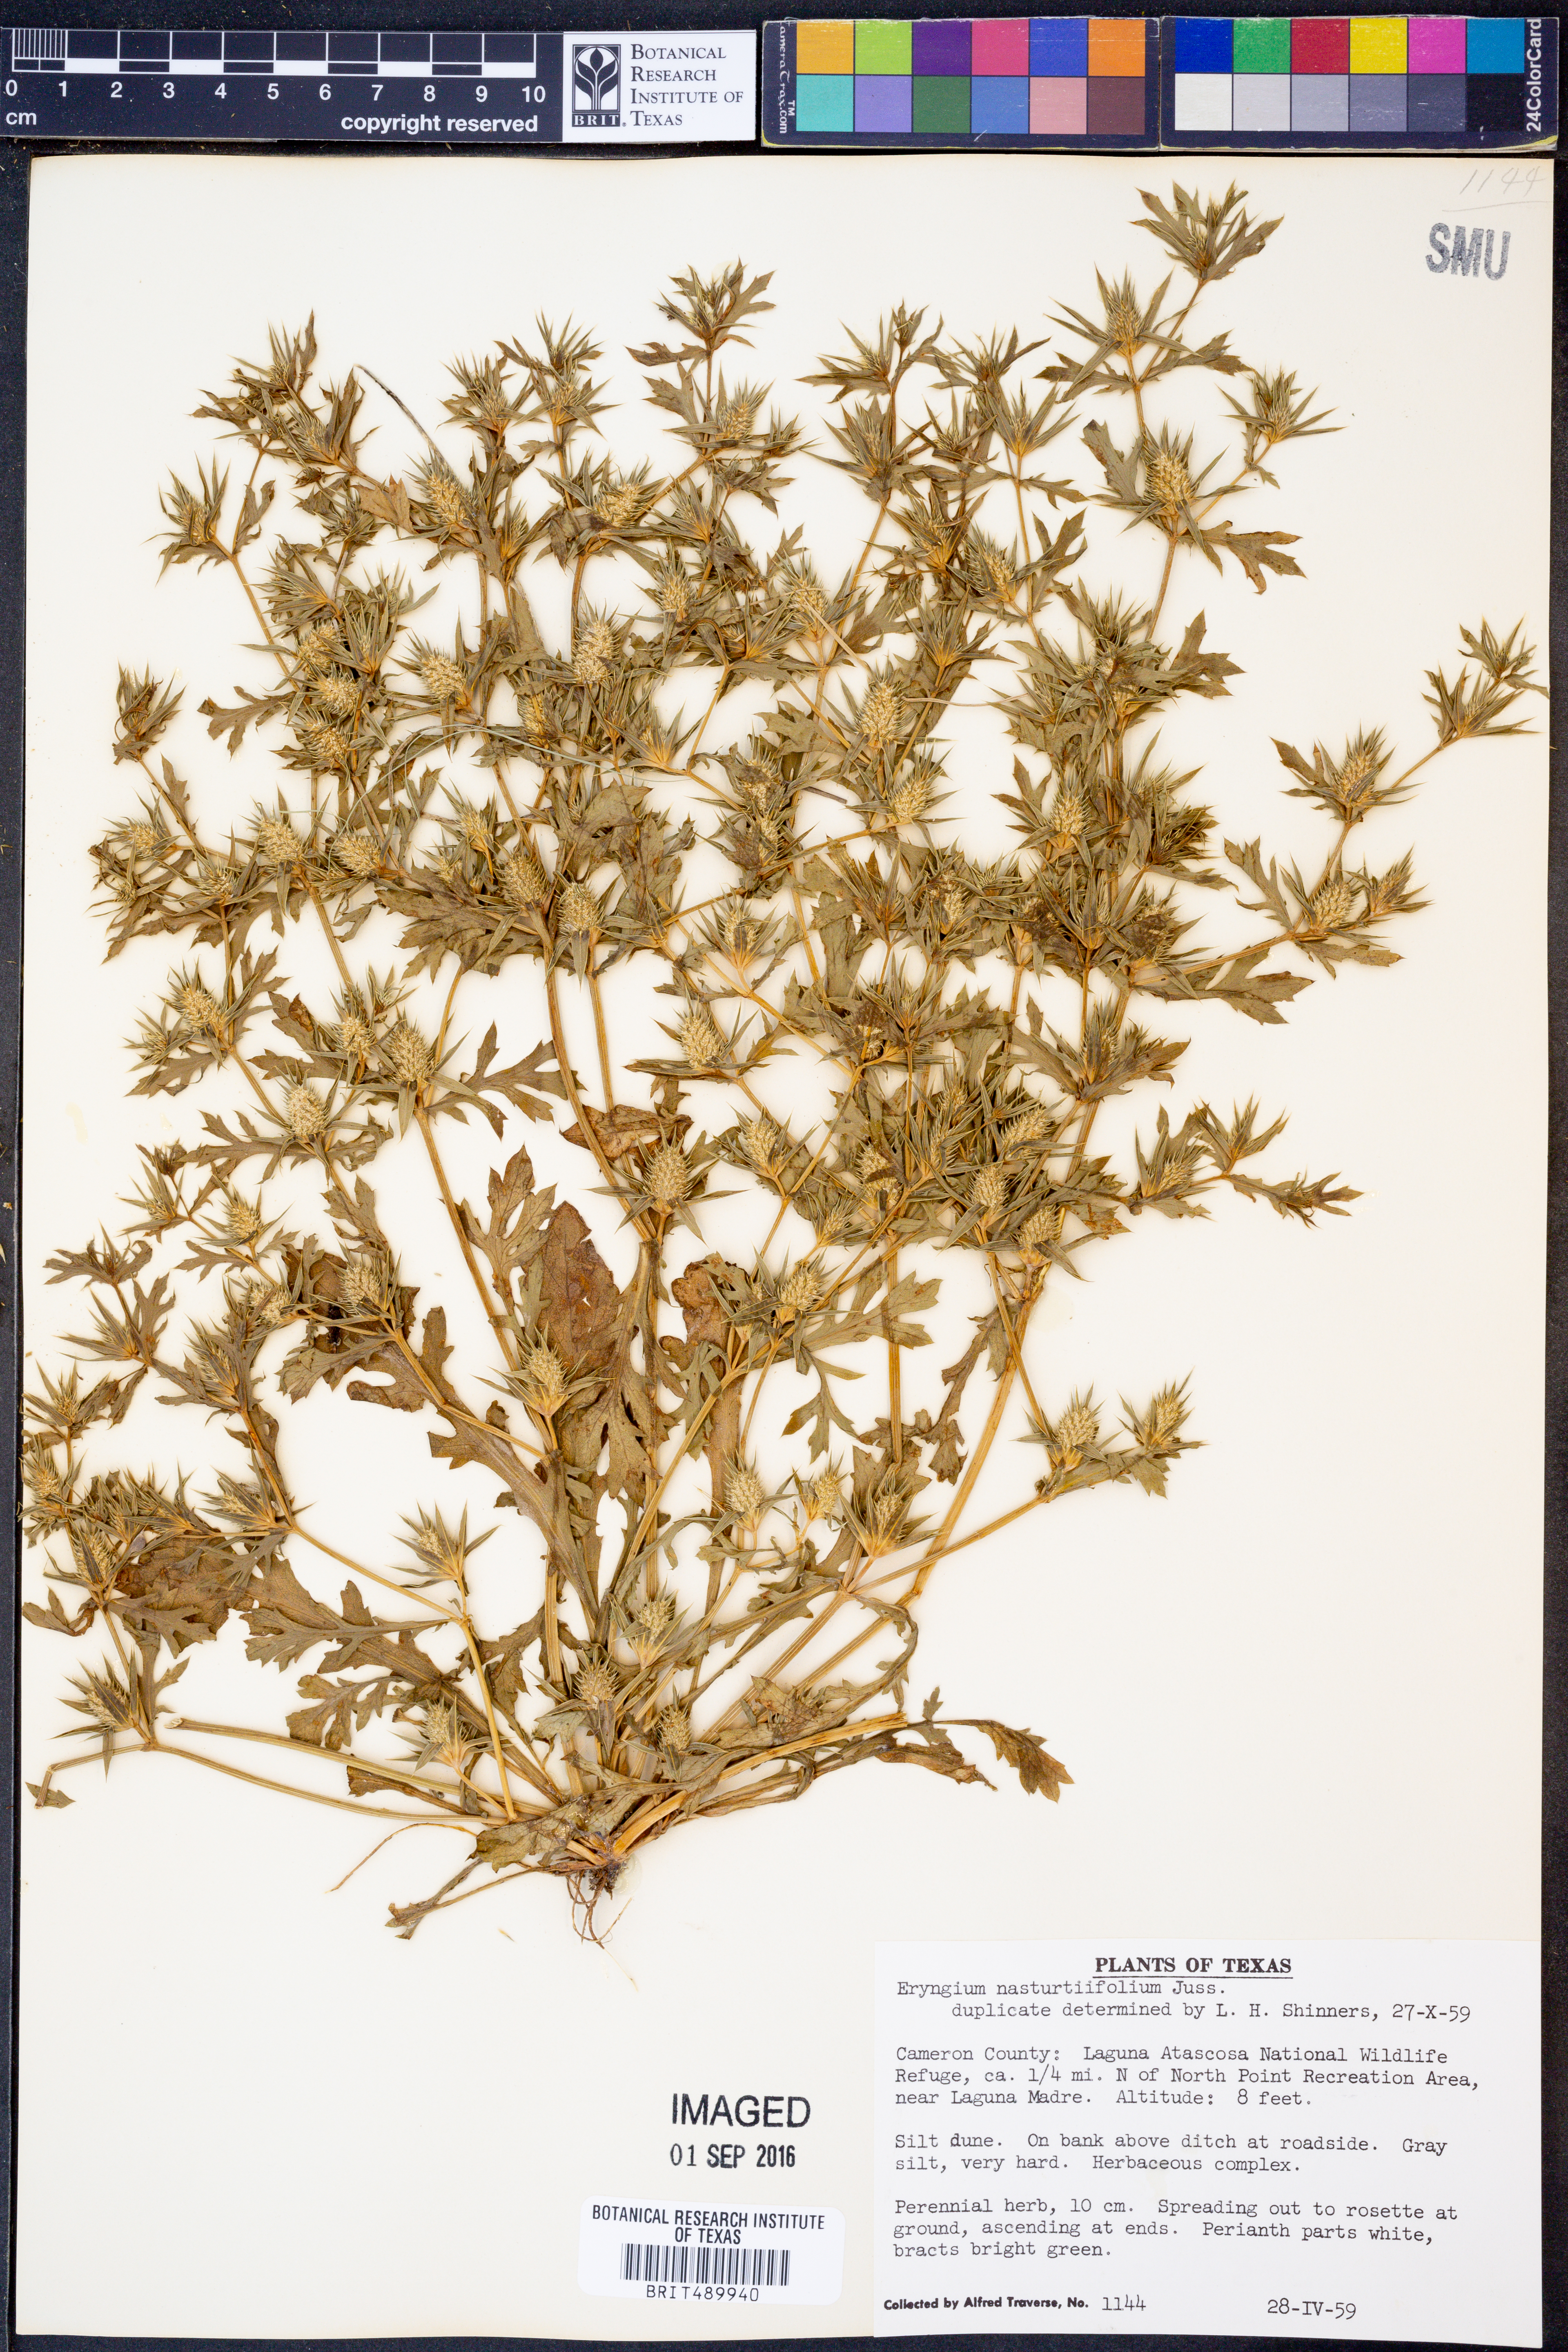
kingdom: Plantae
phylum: Tracheophyta
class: Magnoliopsida
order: Apiales
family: Apiaceae
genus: Eryngium
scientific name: Eryngium nasturtiifolium
